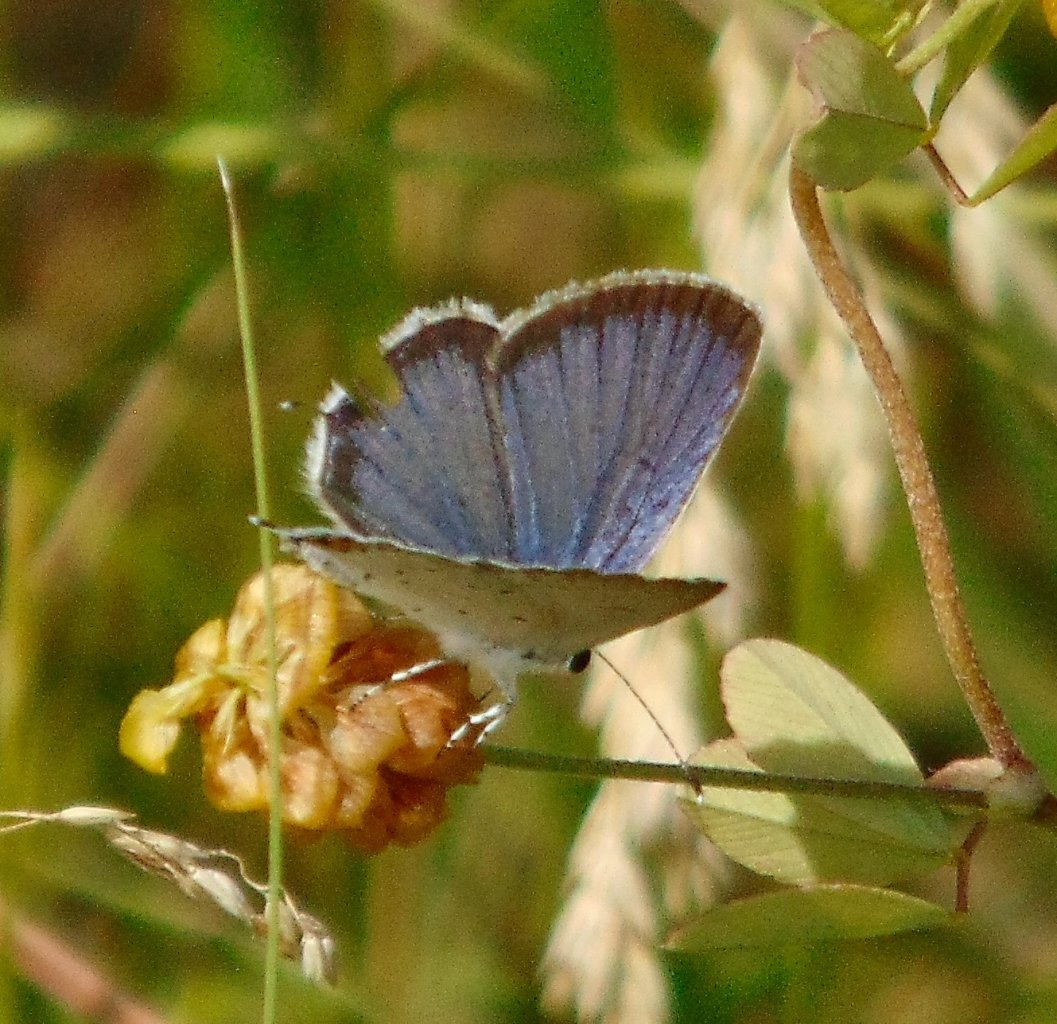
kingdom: Animalia
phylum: Arthropoda
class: Insecta
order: Lepidoptera
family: Lycaenidae
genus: Elkalyce
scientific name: Elkalyce comyntas
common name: Eastern Tailed-Blue
